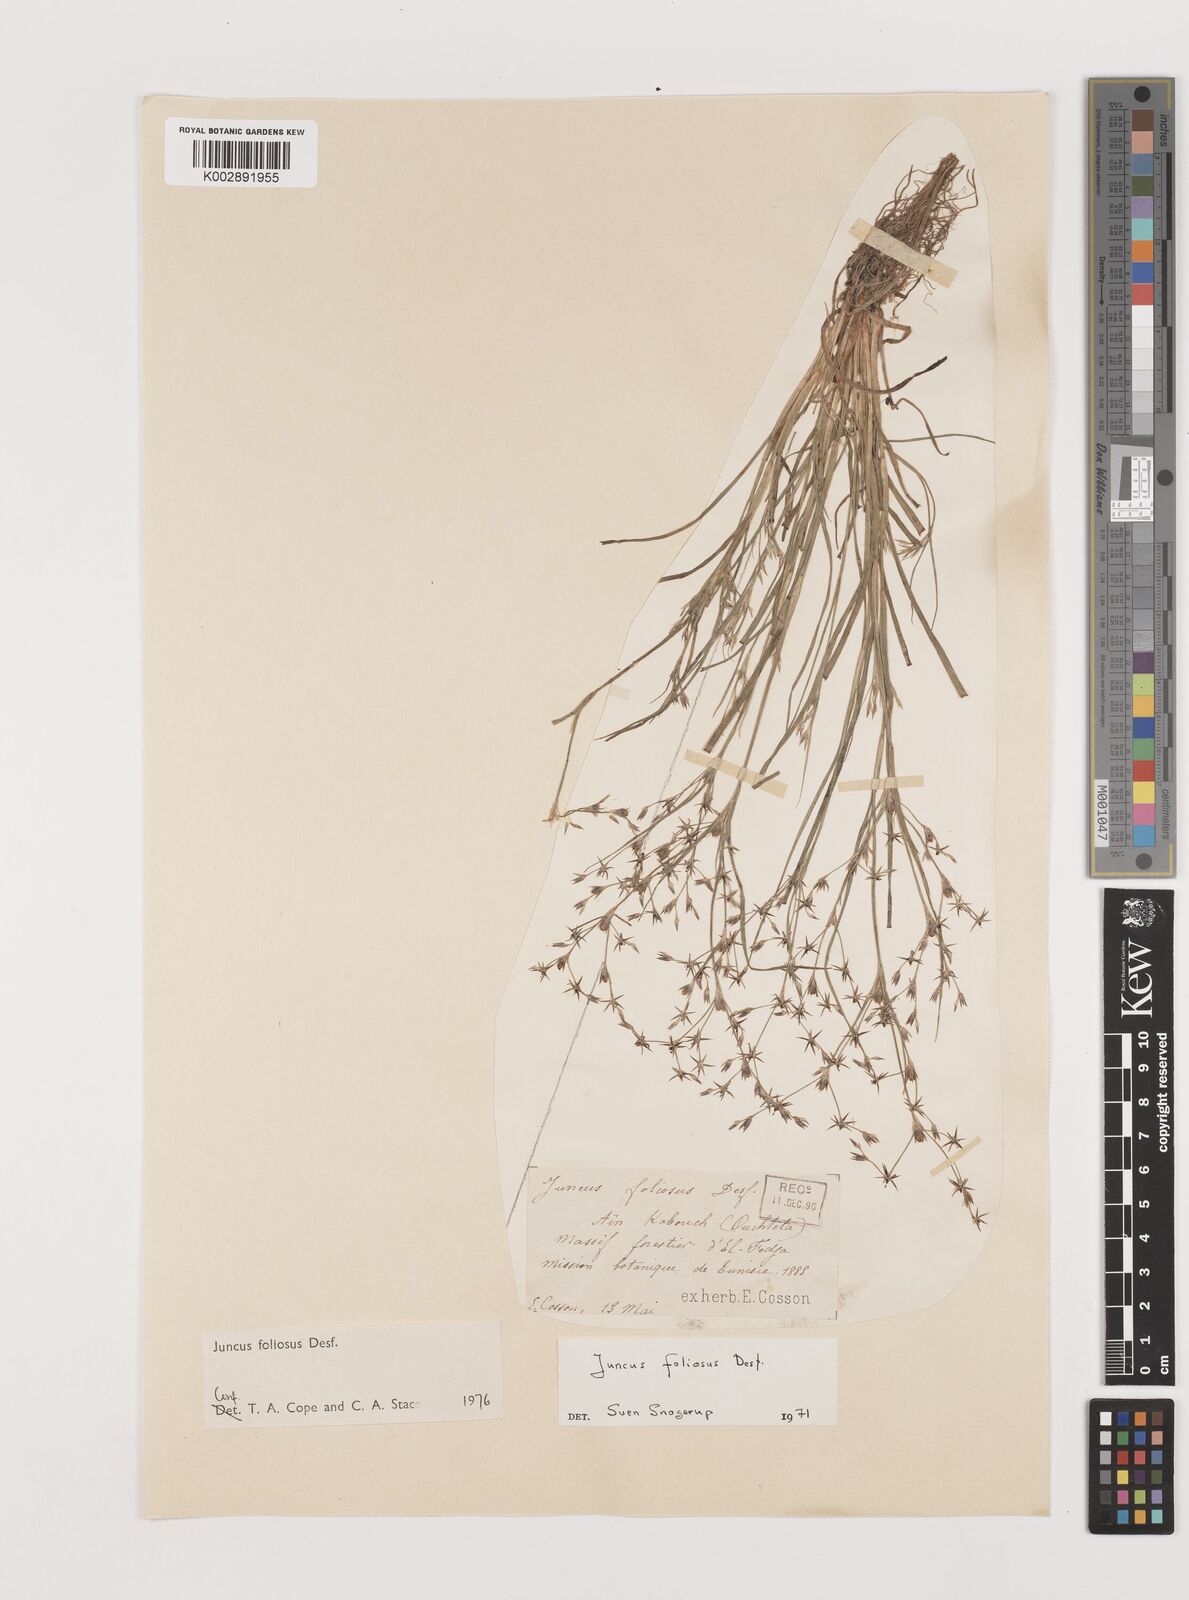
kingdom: Plantae
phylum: Tracheophyta
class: Liliopsida
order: Poales
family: Juncaceae
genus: Juncus
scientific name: Juncus acutiflorus
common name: Sharp-flowered rush
